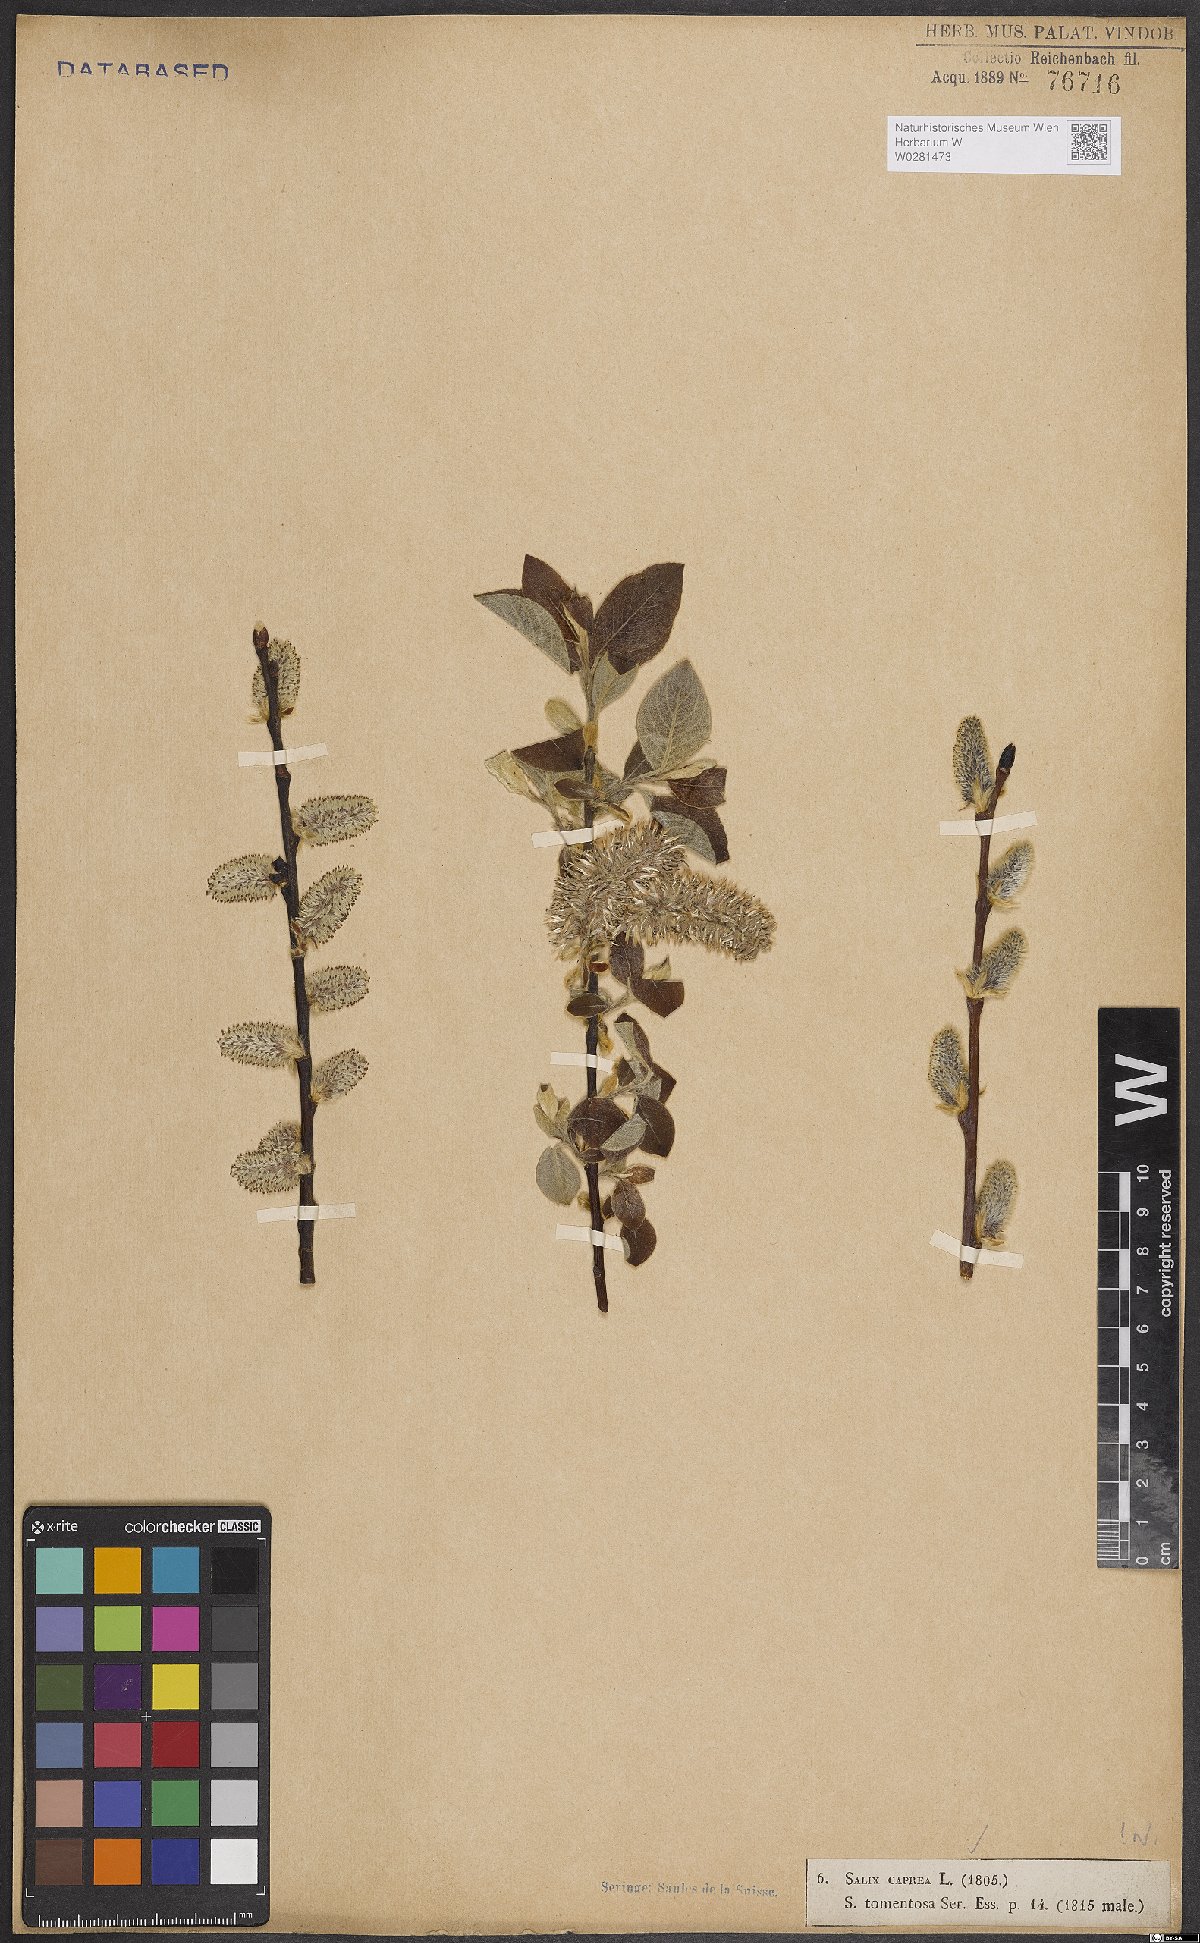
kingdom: Plantae
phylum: Tracheophyta
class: Magnoliopsida
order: Malpighiales
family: Salicaceae
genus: Salix
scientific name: Salix caprea
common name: Goat willow
